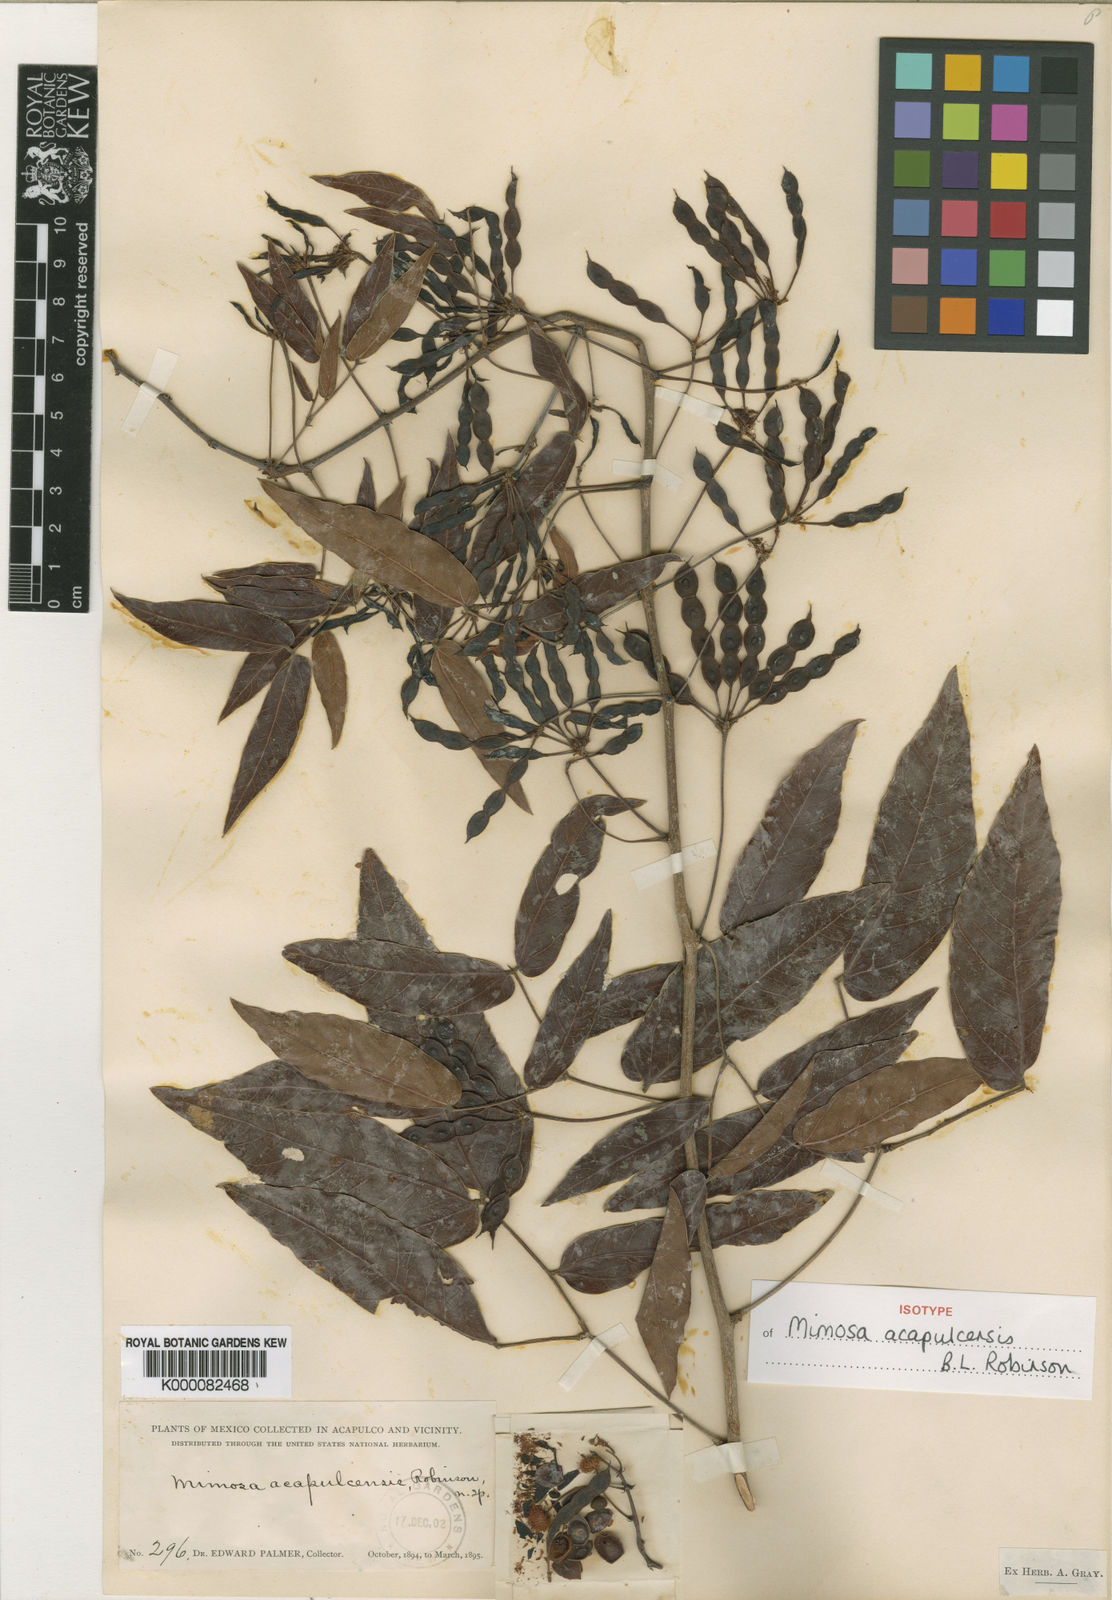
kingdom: Plantae
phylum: Tracheophyta
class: Magnoliopsida
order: Fabales
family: Fabaceae
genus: Mimosa
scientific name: Mimosa acapulcensis
